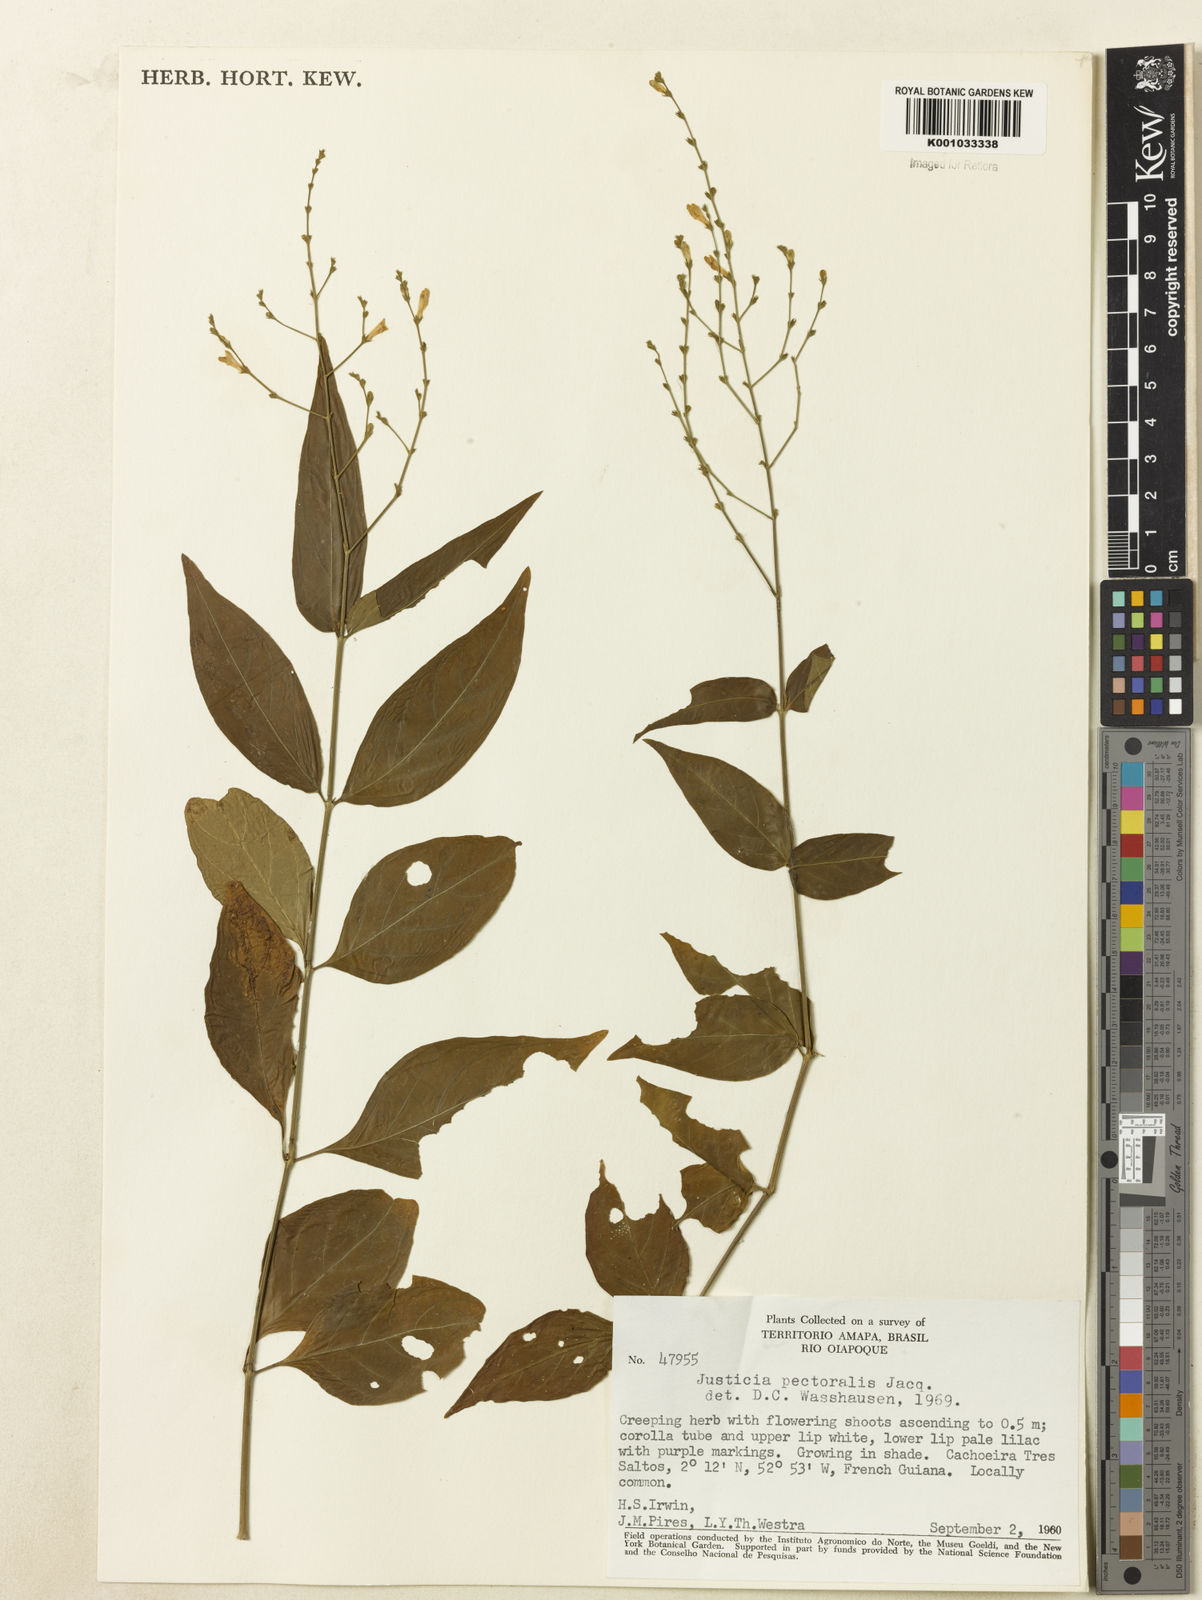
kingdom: Plantae
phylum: Tracheophyta
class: Magnoliopsida
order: Lamiales
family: Acanthaceae
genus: Dianthera
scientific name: Dianthera pectoralis
